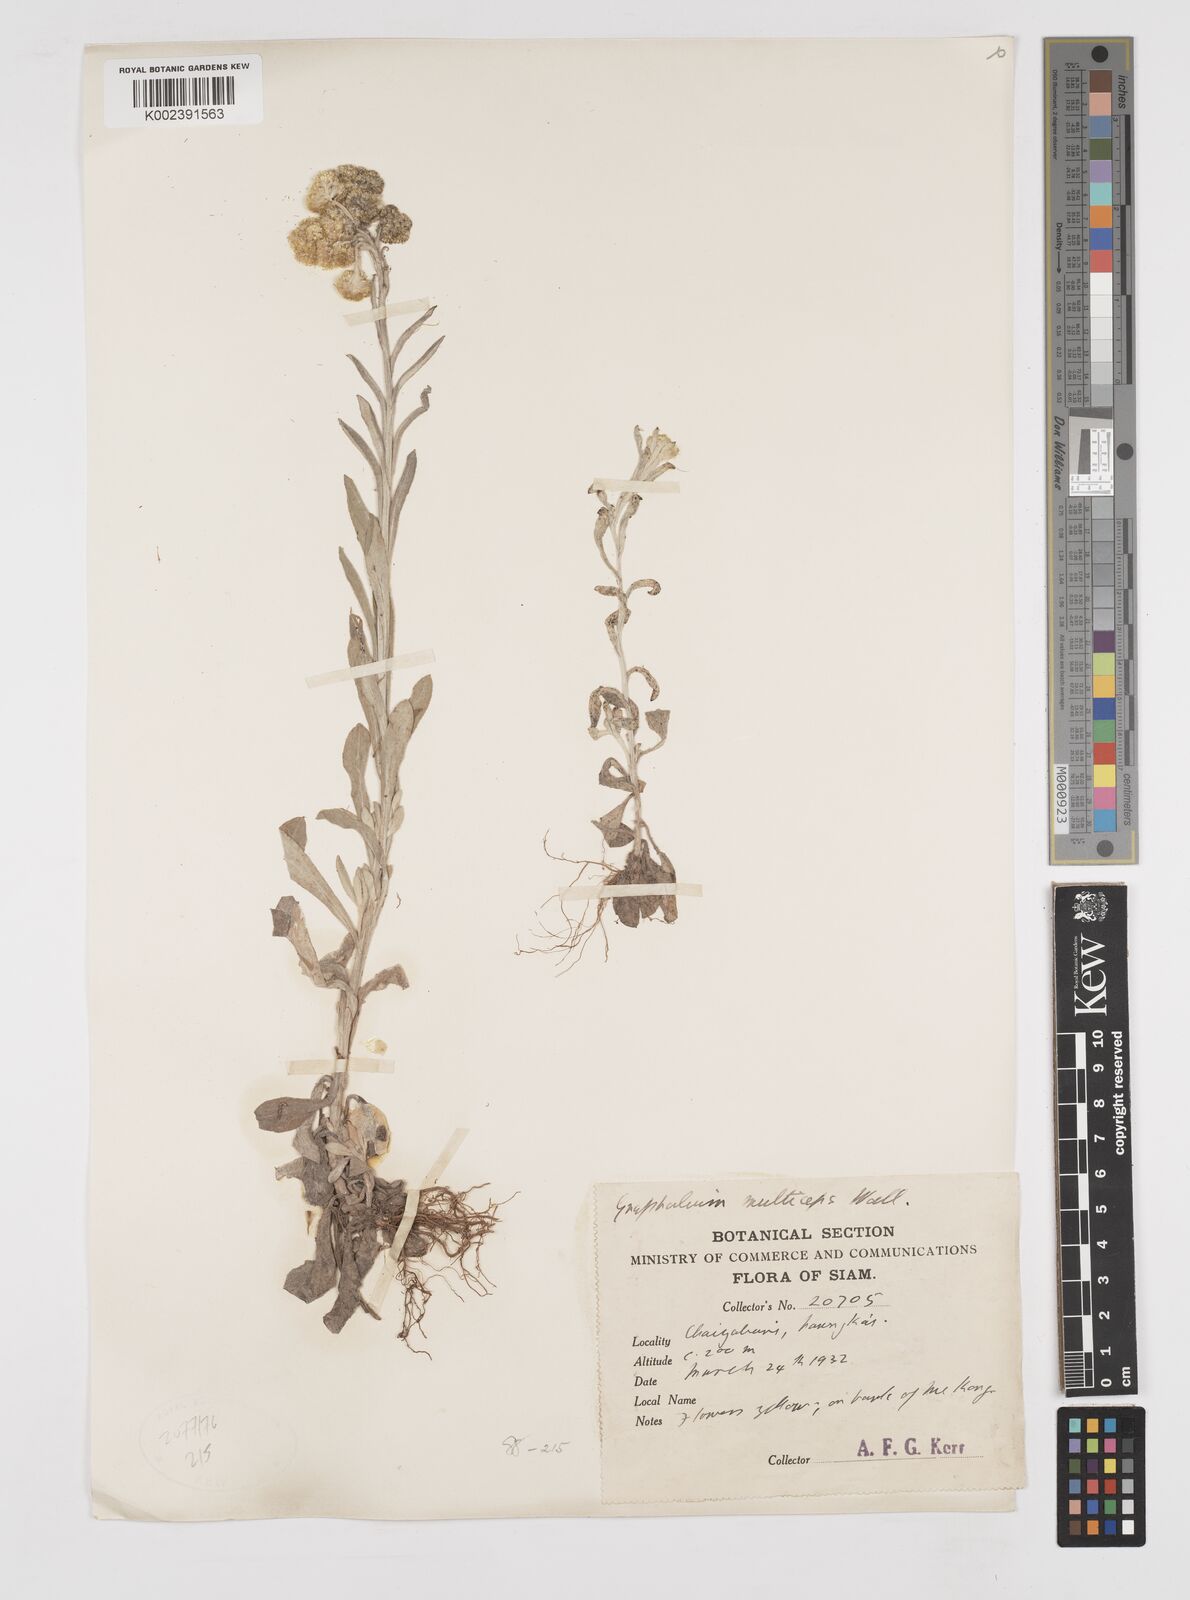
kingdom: Plantae
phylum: Tracheophyta
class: Magnoliopsida
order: Asterales
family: Asteraceae
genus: Pseudognaphalium
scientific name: Pseudognaphalium affine
